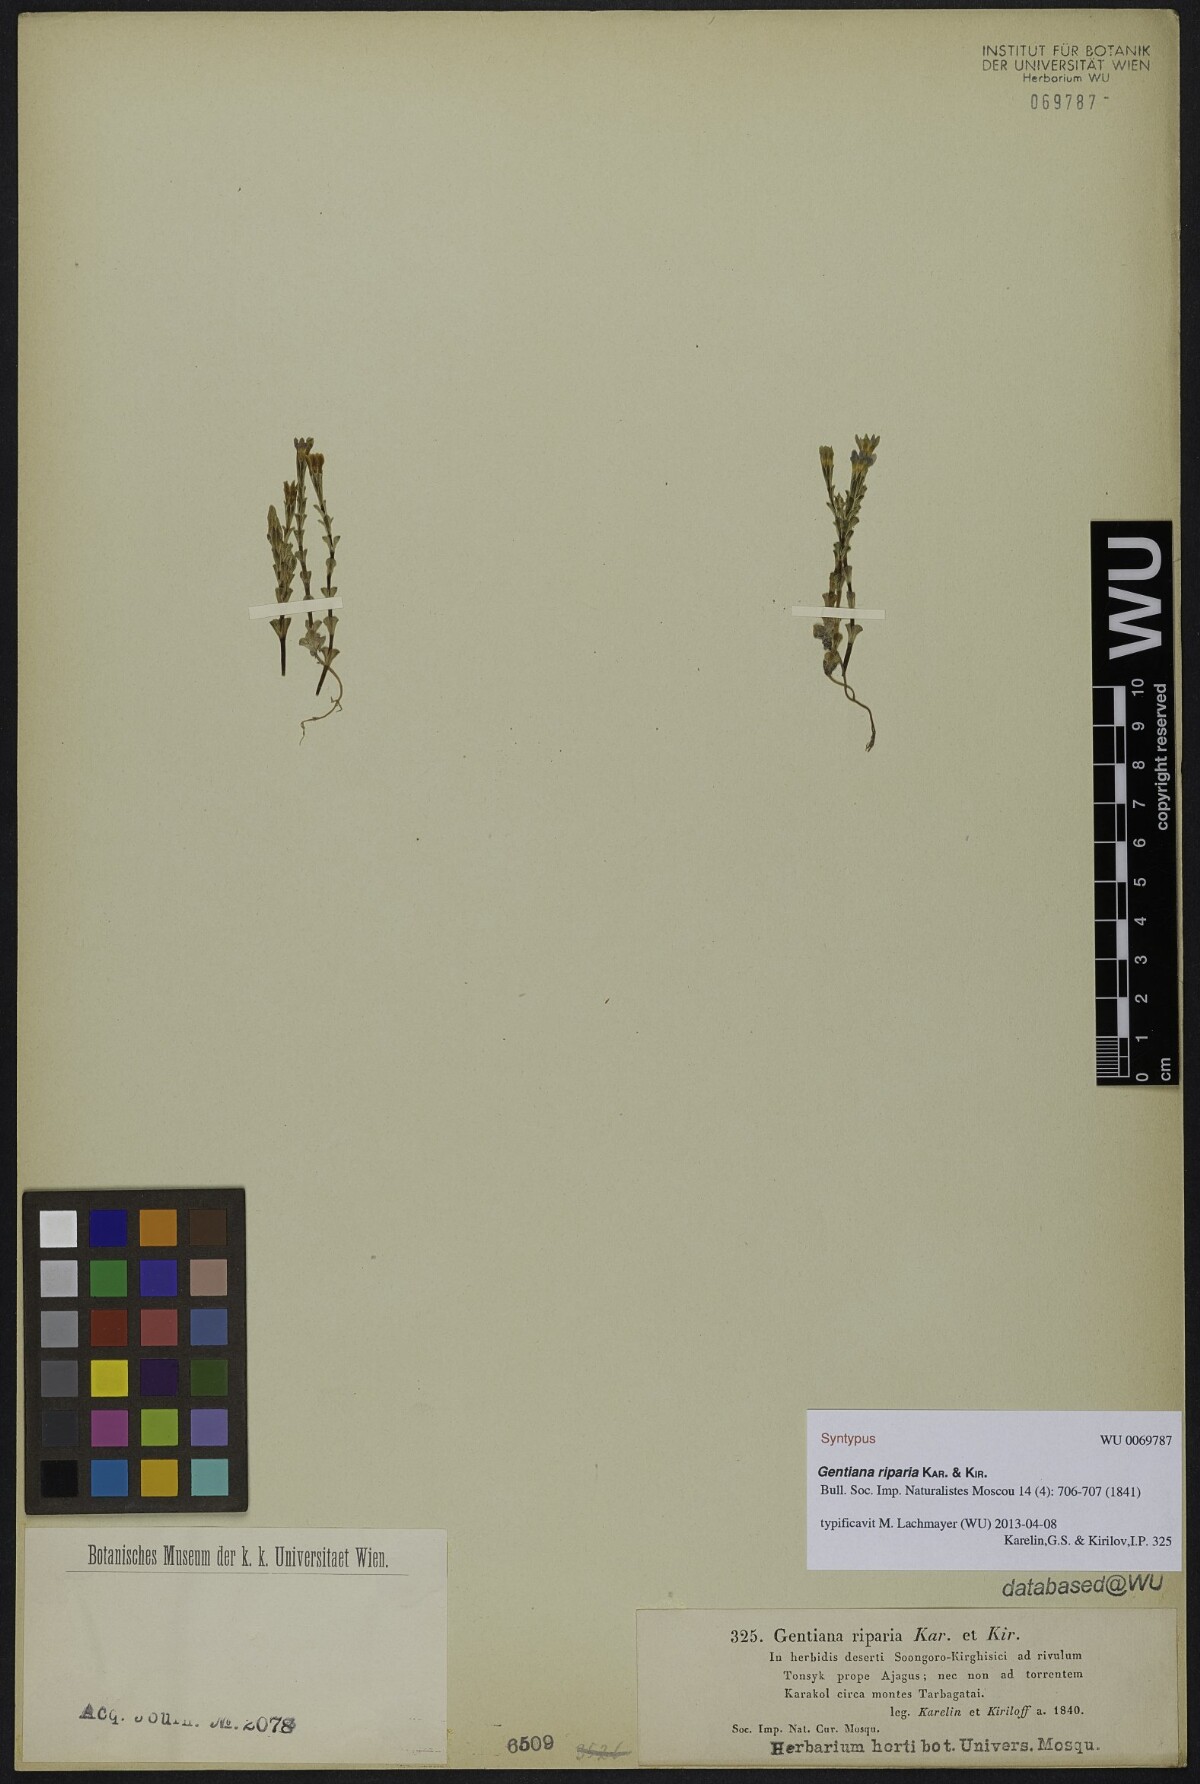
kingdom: Plantae
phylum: Tracheophyta
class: Magnoliopsida
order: Gentianales
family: Gentianaceae
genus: Gentiana
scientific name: Gentiana riparia
